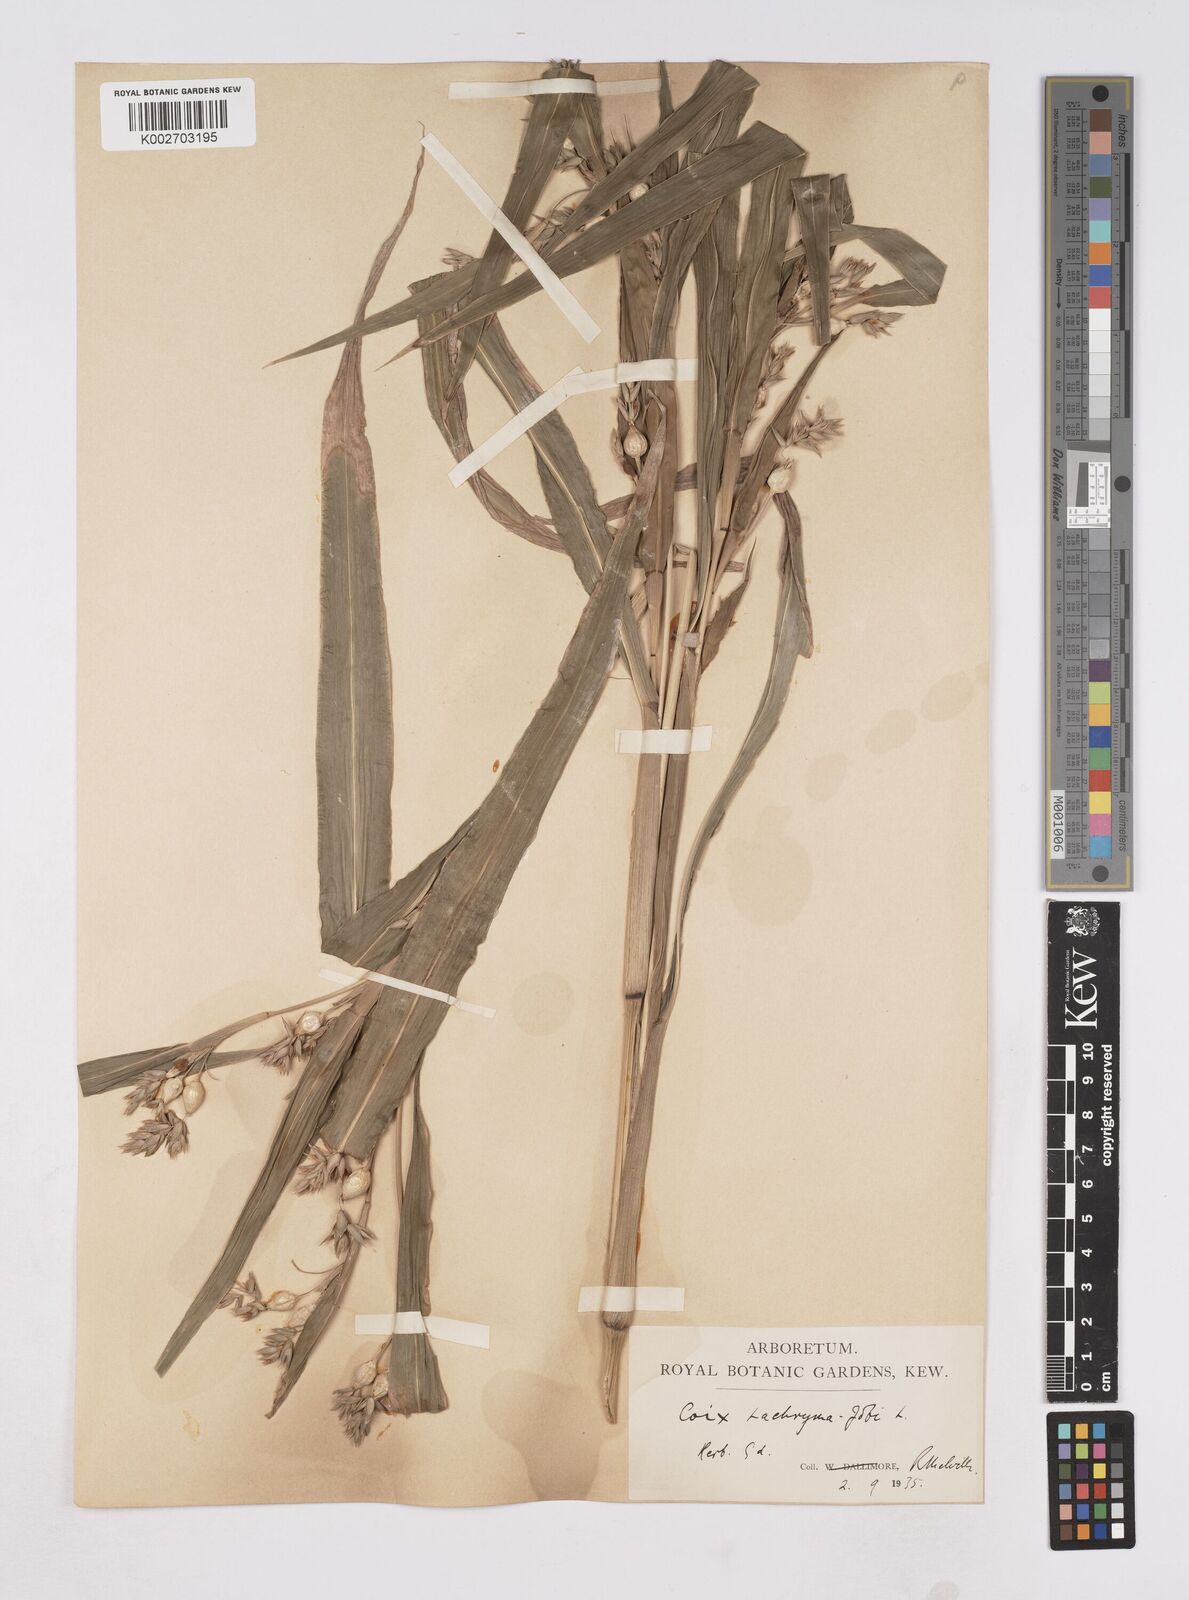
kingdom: Plantae
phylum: Tracheophyta
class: Liliopsida
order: Poales
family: Poaceae
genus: Coix
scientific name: Coix lacryma-jobi
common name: Job's tears
